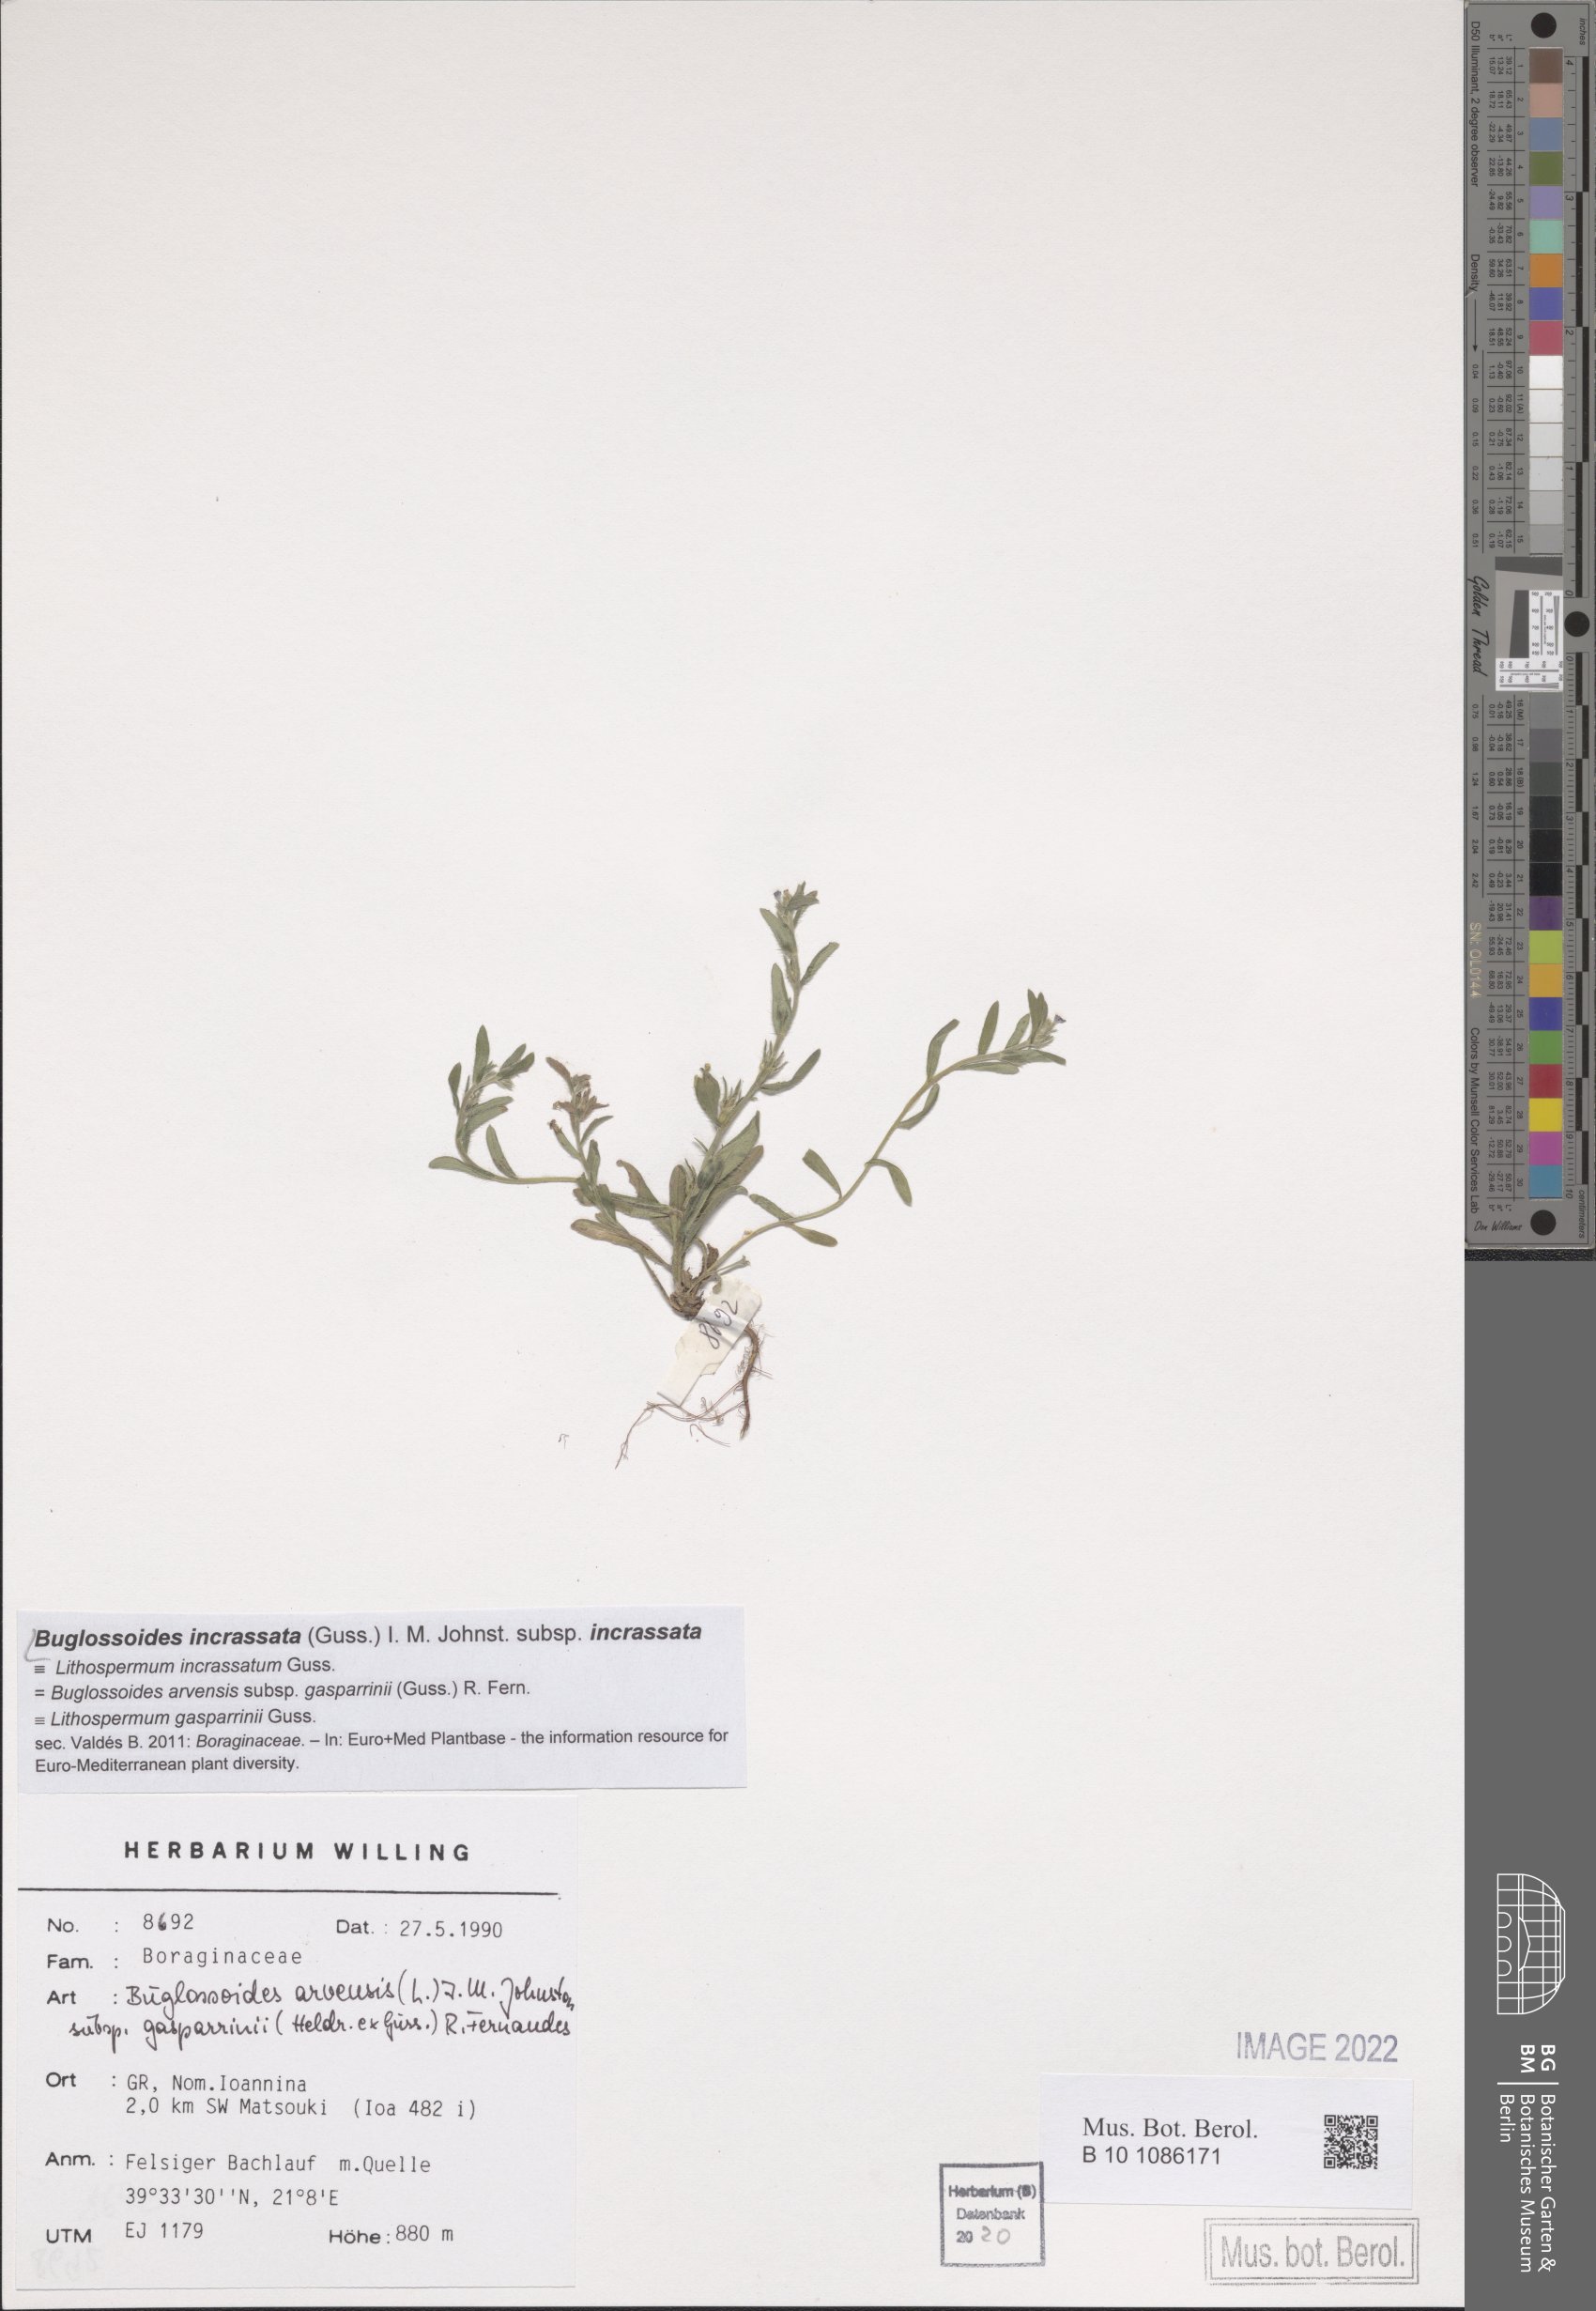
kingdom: Plantae
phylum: Tracheophyta
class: Magnoliopsida
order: Boraginales
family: Boraginaceae
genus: Buglossoides
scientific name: Buglossoides incrassata
